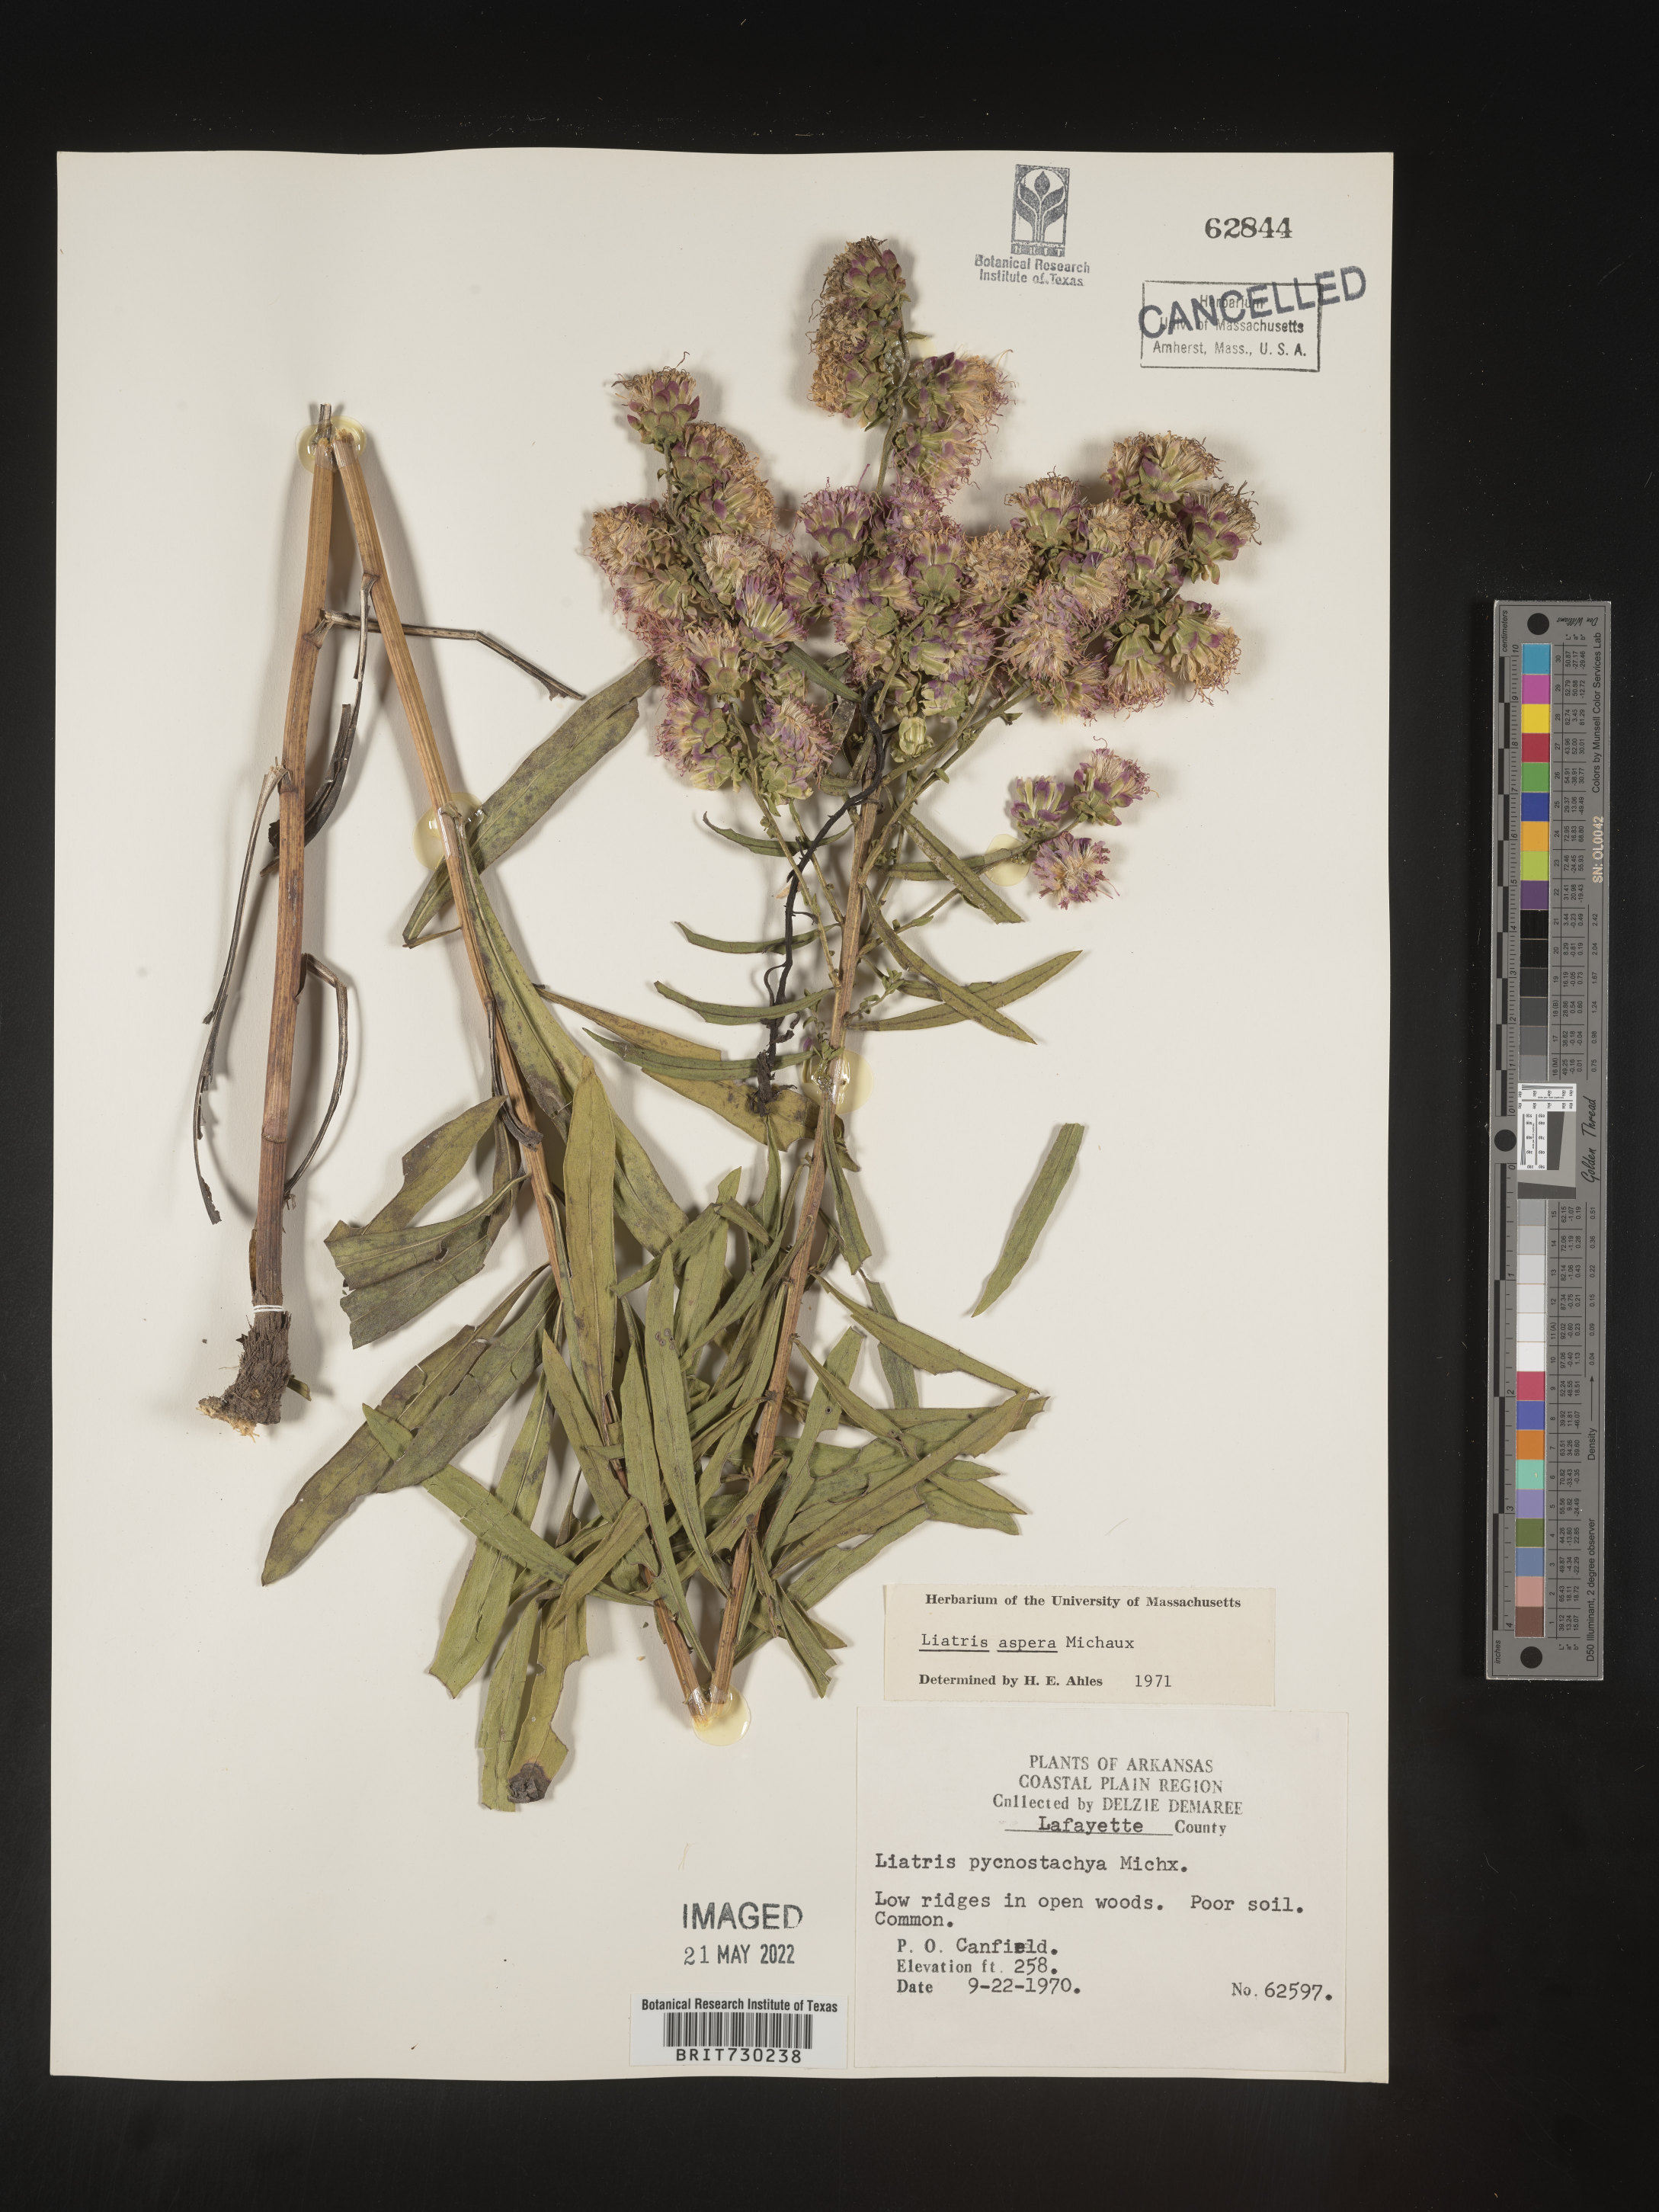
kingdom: Plantae
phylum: Tracheophyta
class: Magnoliopsida
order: Asterales
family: Asteraceae
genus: Liatris
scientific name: Liatris aspera
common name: Lacerate blazing-star
